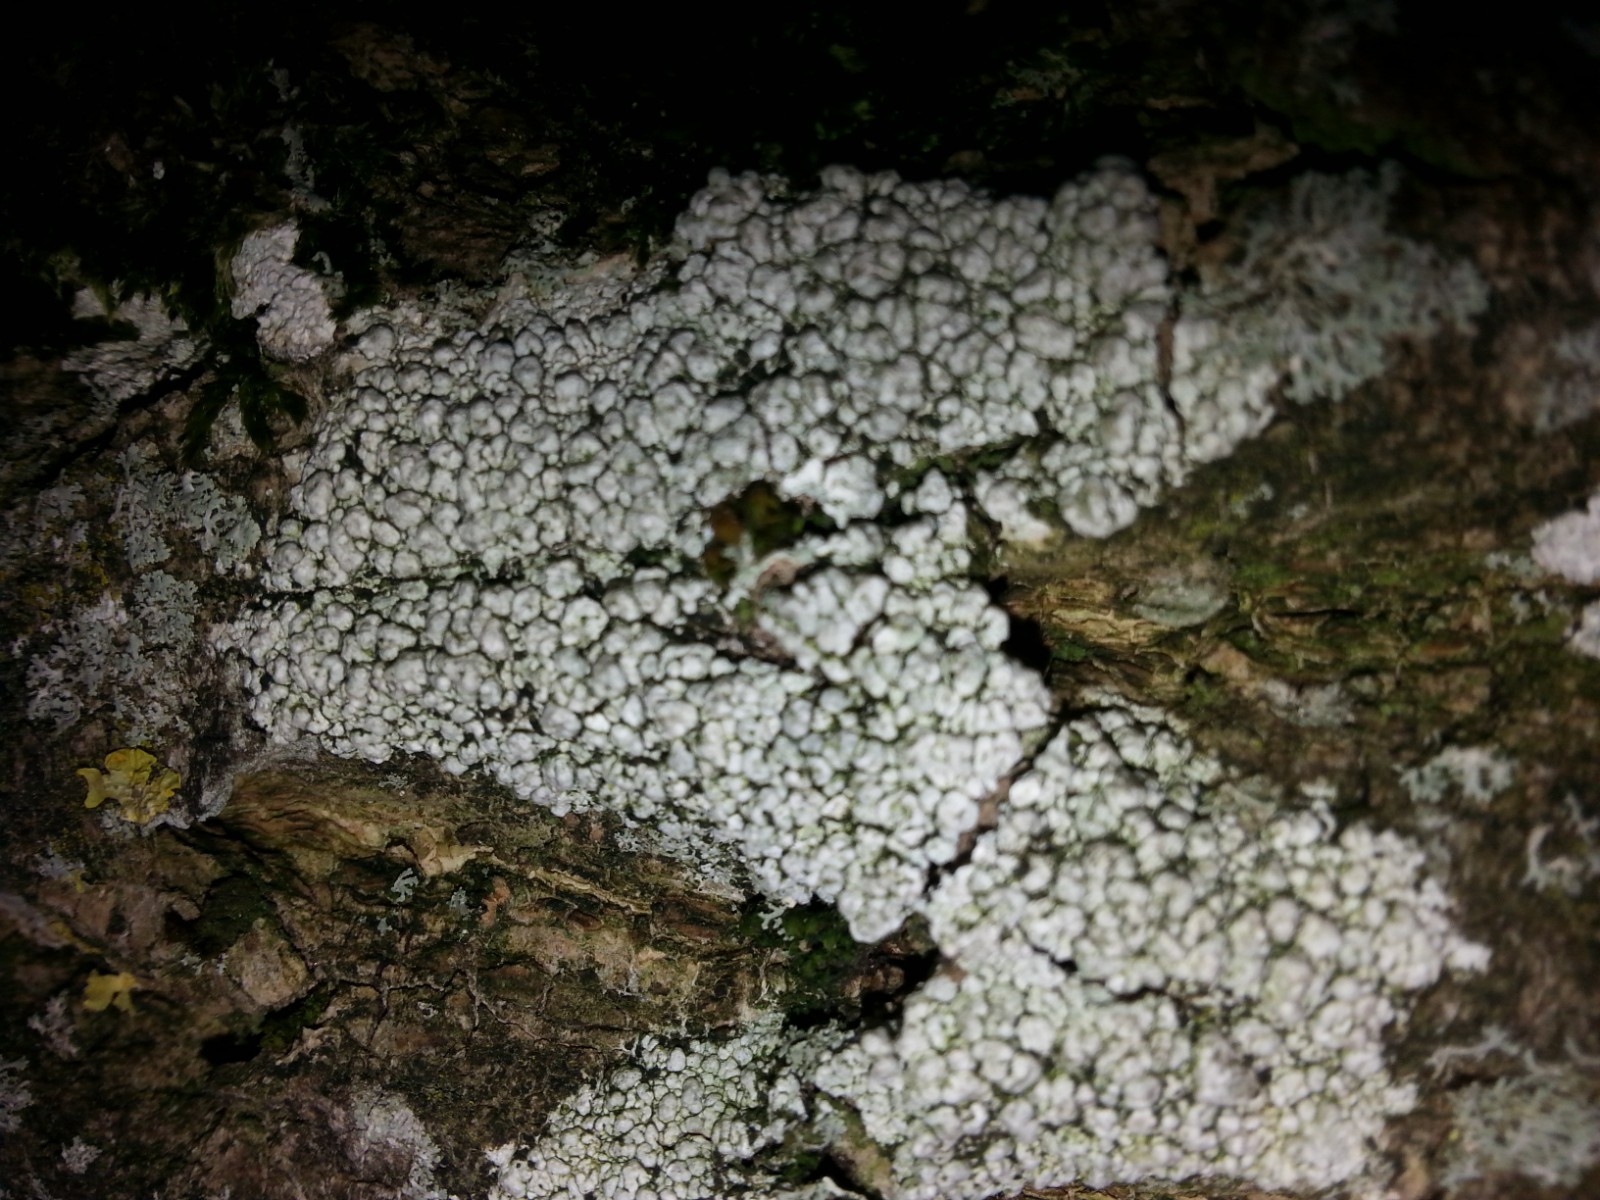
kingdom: Fungi
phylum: Ascomycota
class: Lecanoromycetes
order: Pertusariales
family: Pertusariaceae
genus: Pertusaria
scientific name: Pertusaria hymenea
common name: åben prikvortelav
